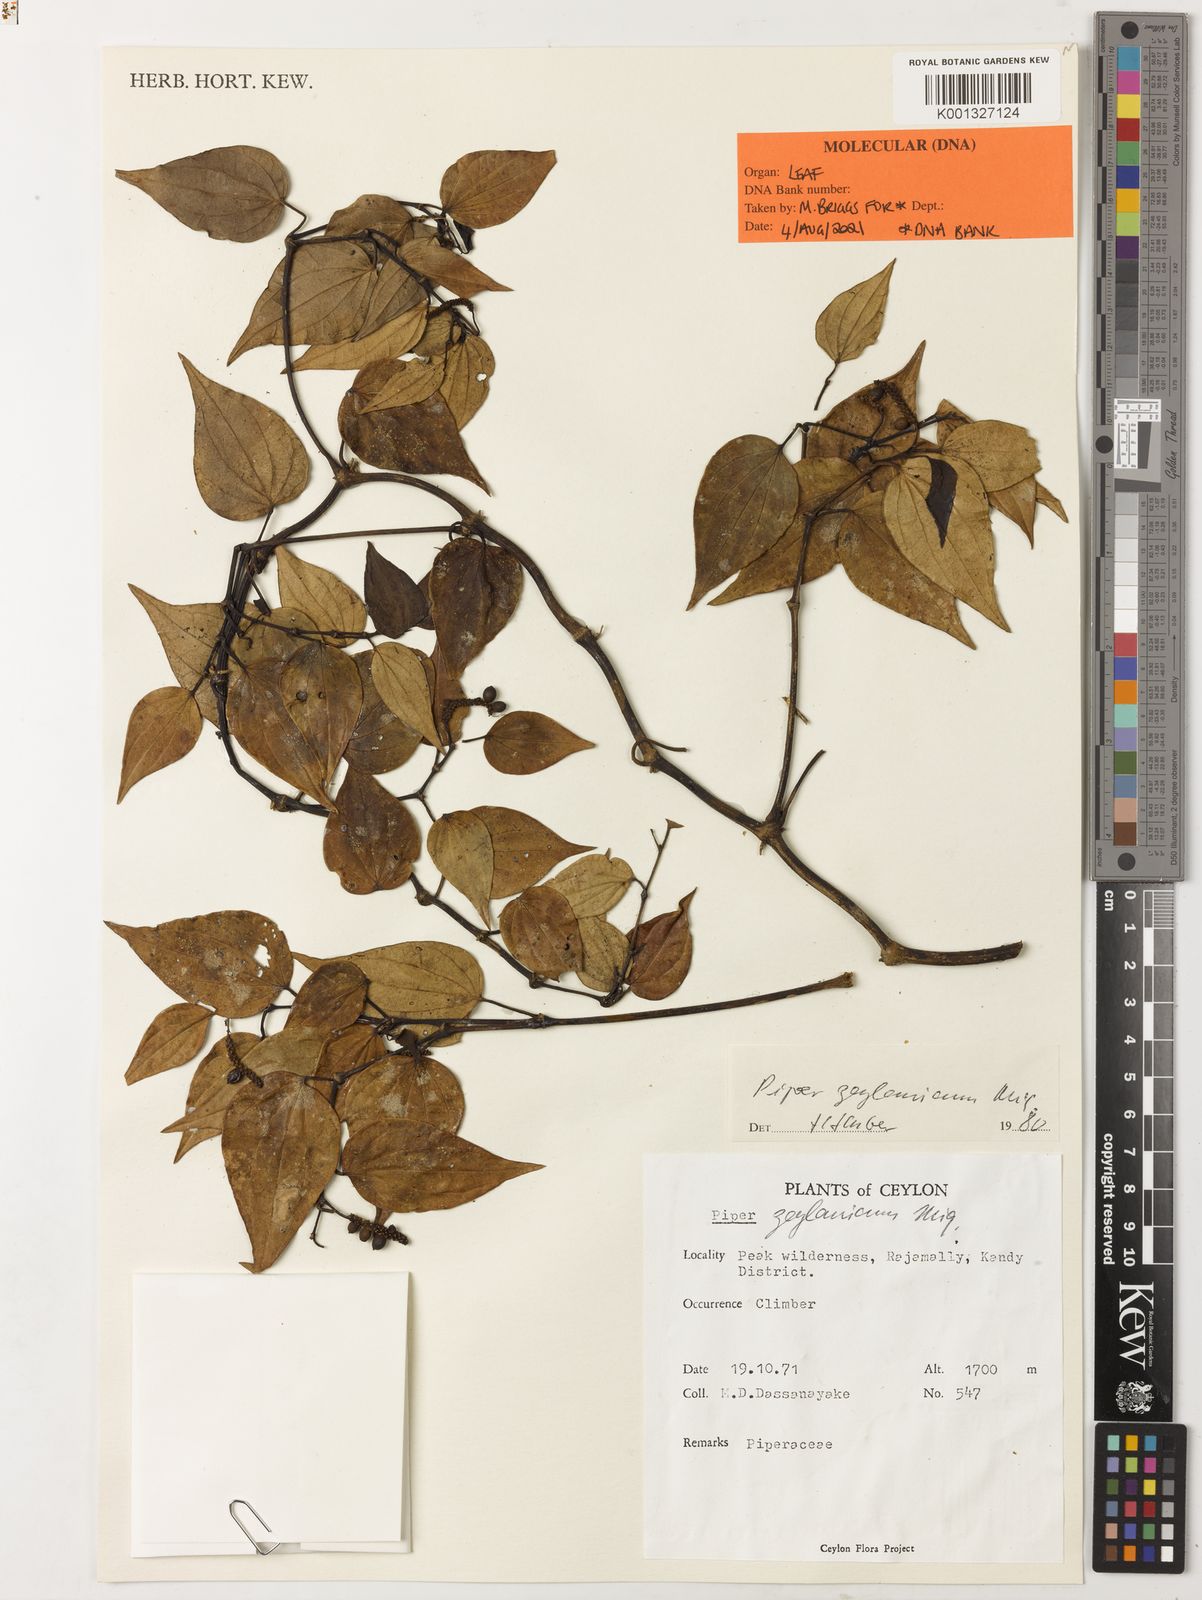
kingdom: Plantae
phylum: Tracheophyta
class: Magnoliopsida
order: Piperales
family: Piperaceae
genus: Piper
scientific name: Piper zeylanicum
